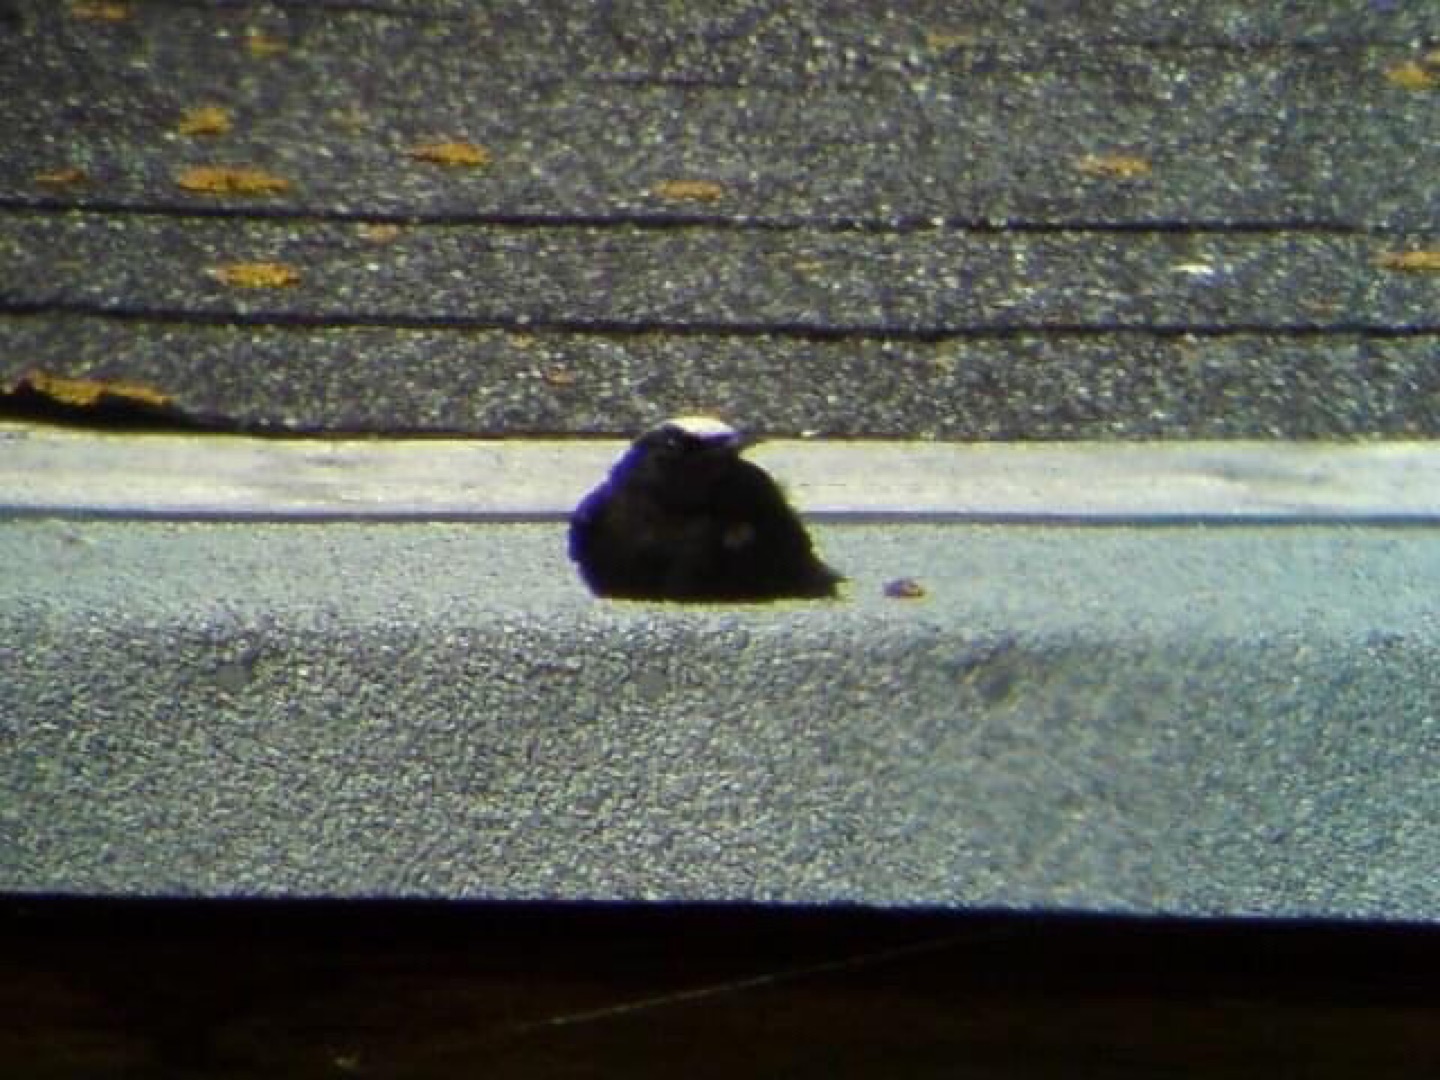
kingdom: Animalia
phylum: Chordata
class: Aves
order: Passeriformes
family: Muscicapidae
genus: Oenanthe
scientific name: Oenanthe leucopyga
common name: Hvidkronet stenpikker
